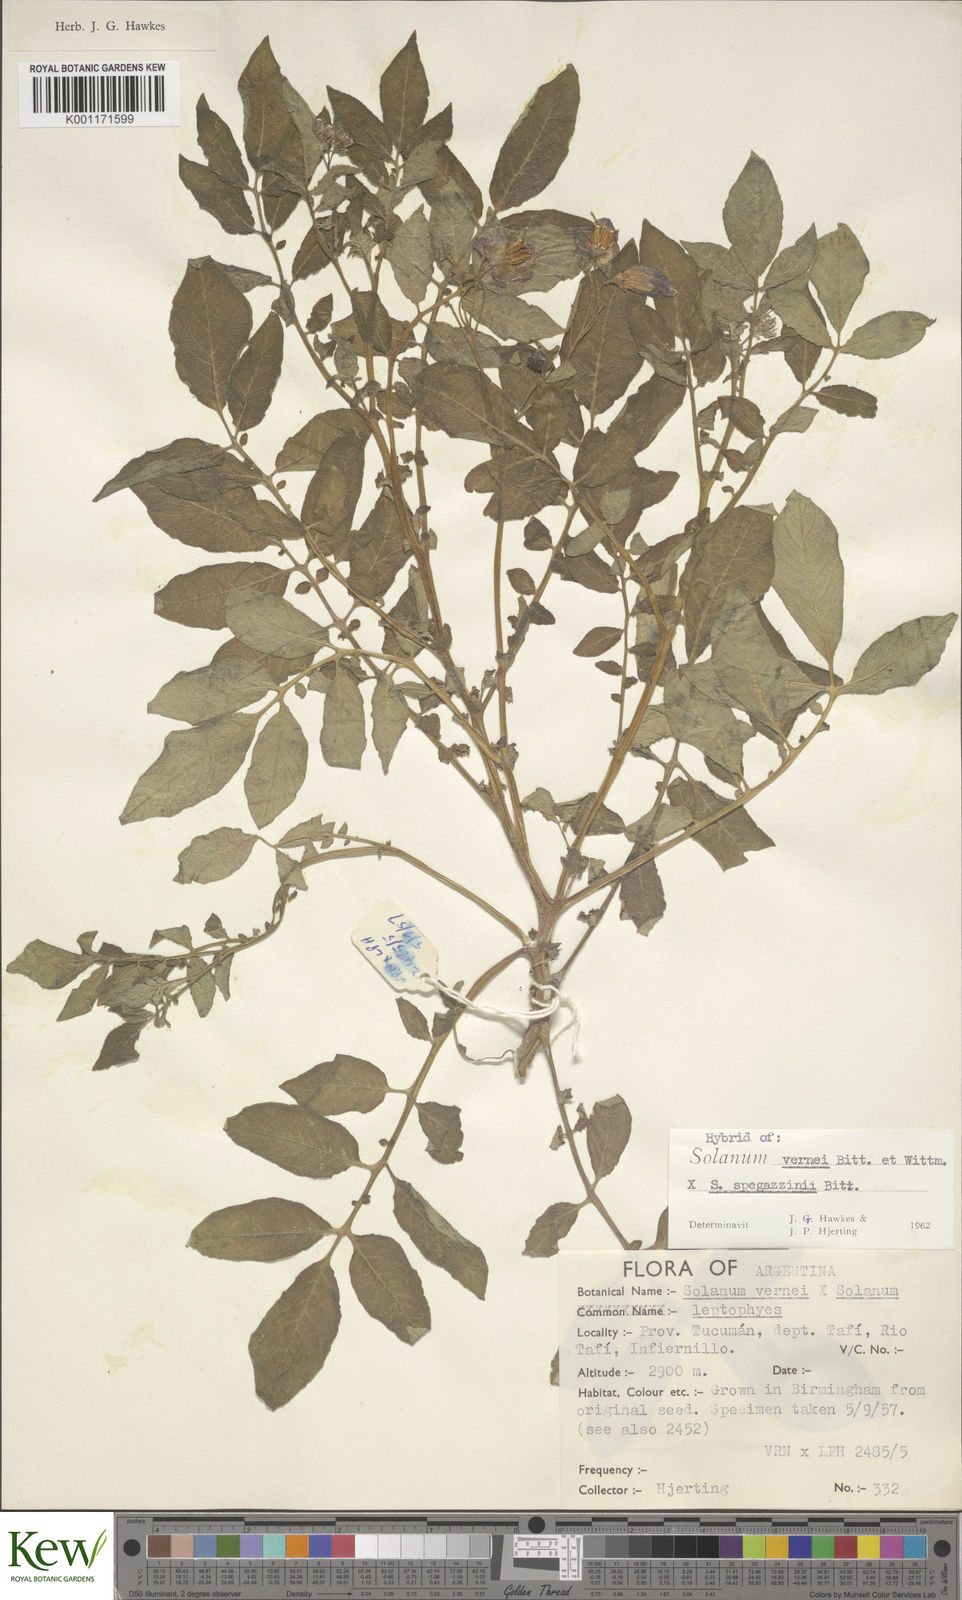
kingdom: Plantae
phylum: Tracheophyta
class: Magnoliopsida
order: Solanales
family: Solanaceae
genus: Solanum
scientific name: Solanum vernei
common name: Purple potato
